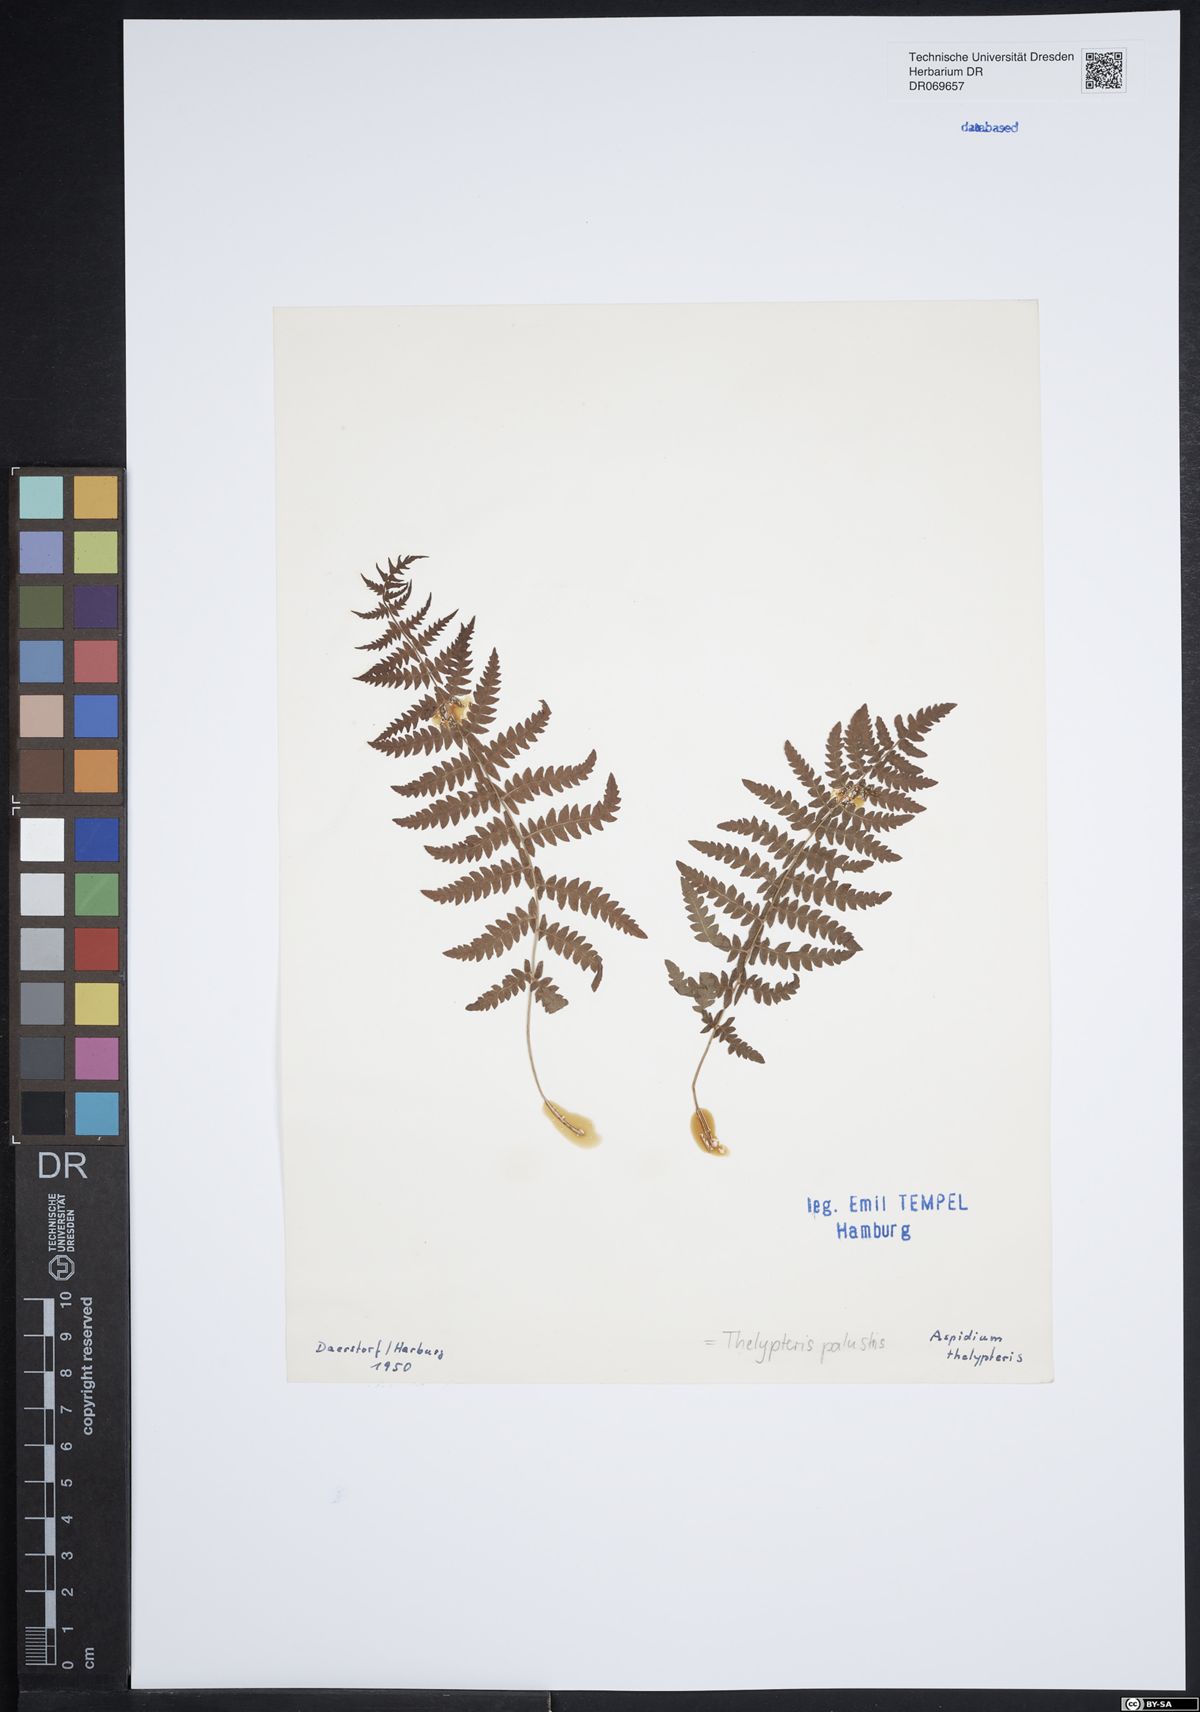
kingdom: Plantae
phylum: Tracheophyta
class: Polypodiopsida
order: Polypodiales
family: Thelypteridaceae
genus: Thelypteris
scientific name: Thelypteris palustris
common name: Marsh fern
